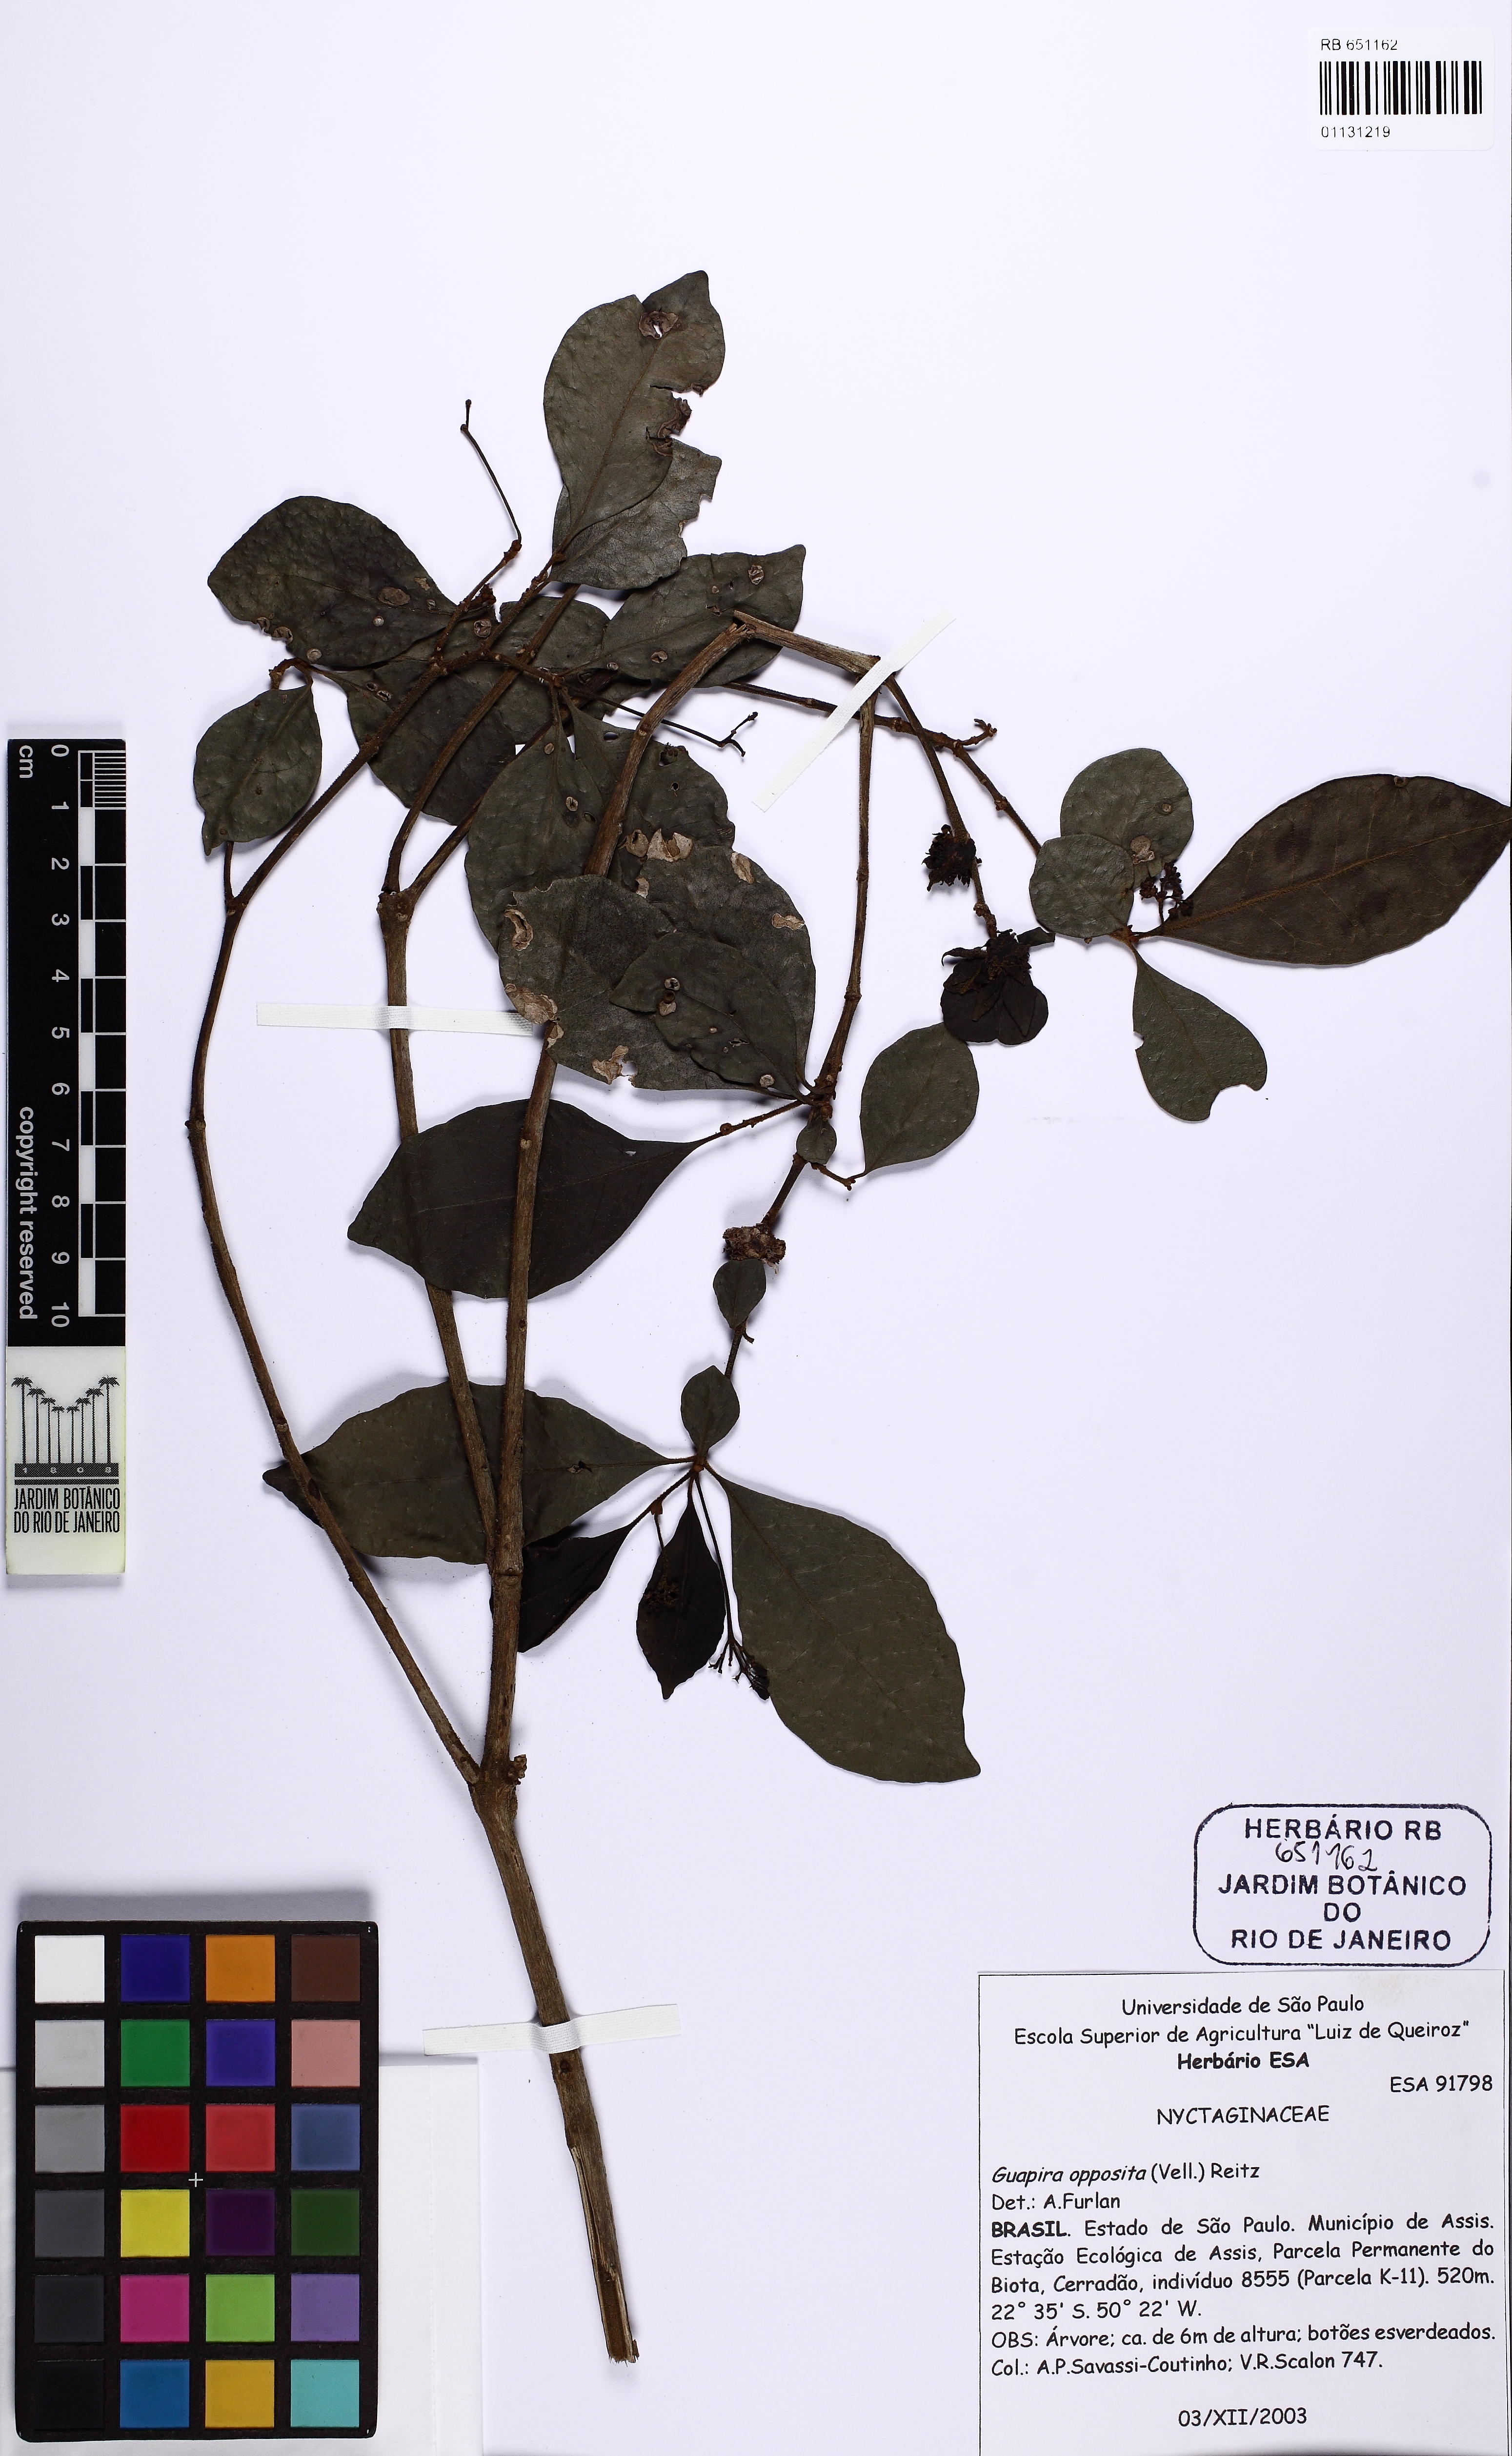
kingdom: Plantae
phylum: Tracheophyta
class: Magnoliopsida
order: Caryophyllales
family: Nyctaginaceae
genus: Guapira
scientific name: Guapira opposita
